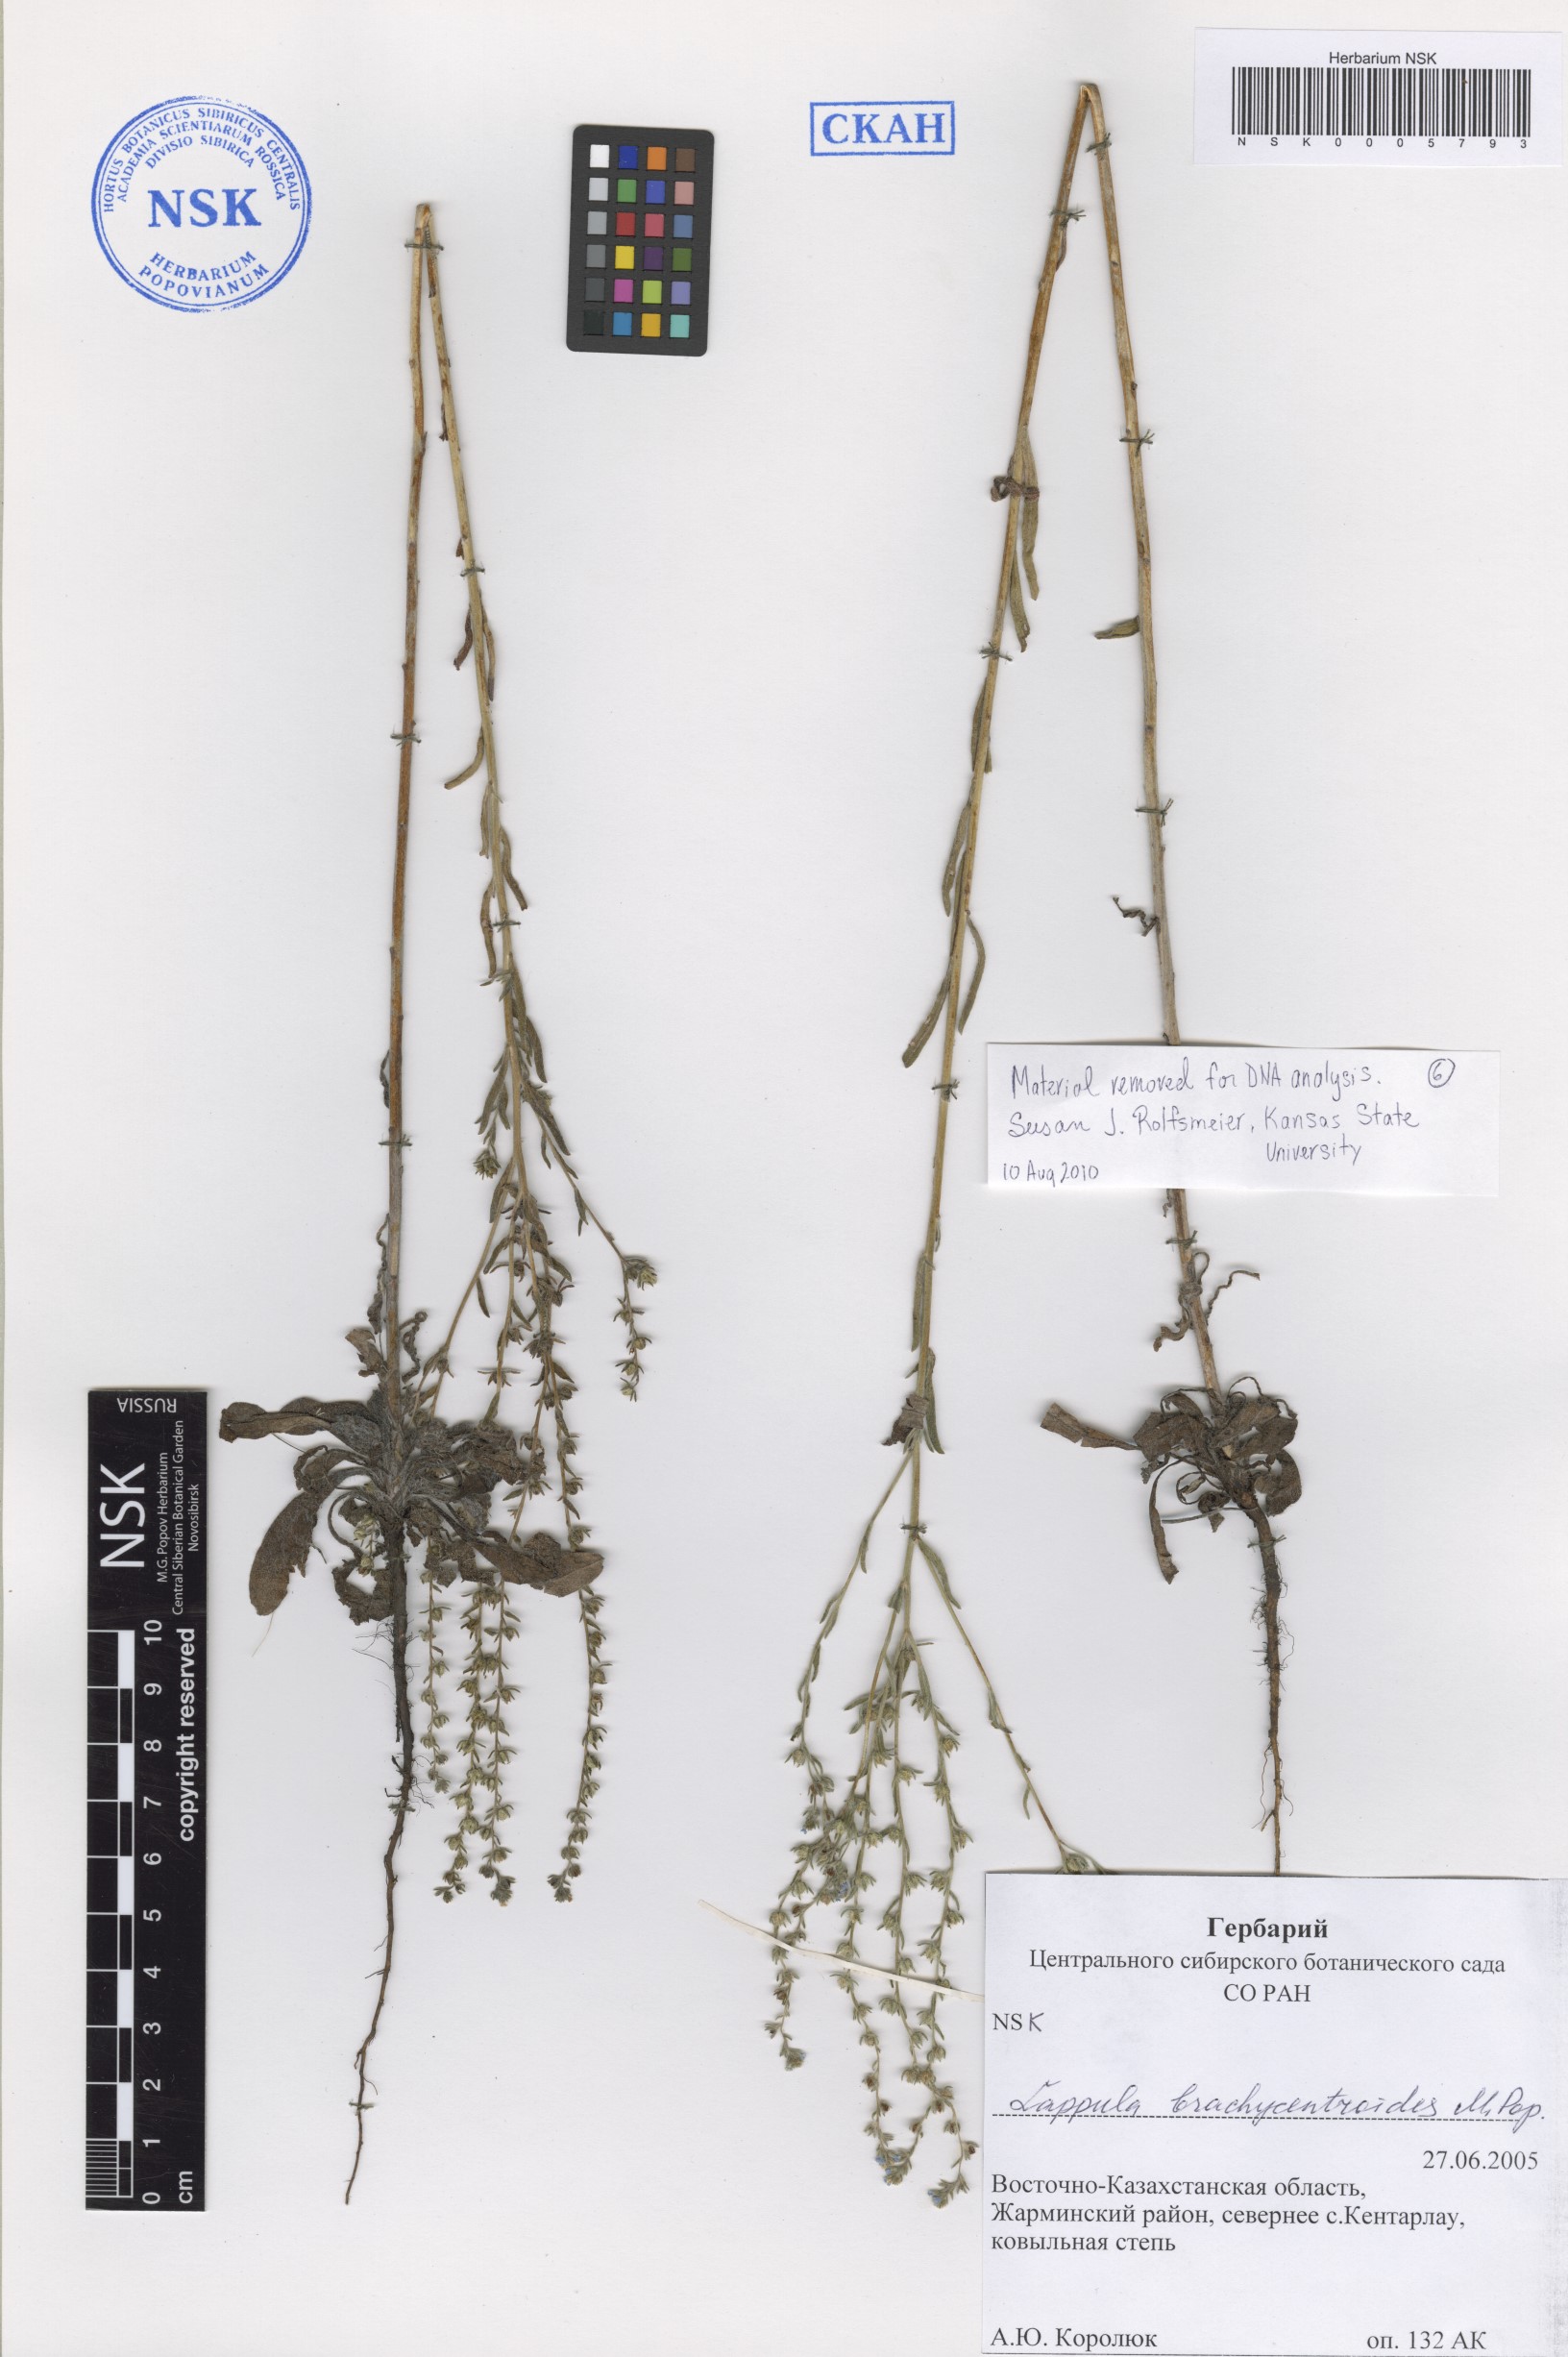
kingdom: Plantae
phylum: Tracheophyta
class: Magnoliopsida
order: Boraginales
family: Boraginaceae
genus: Lappula
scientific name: Lappula brachycentroides
